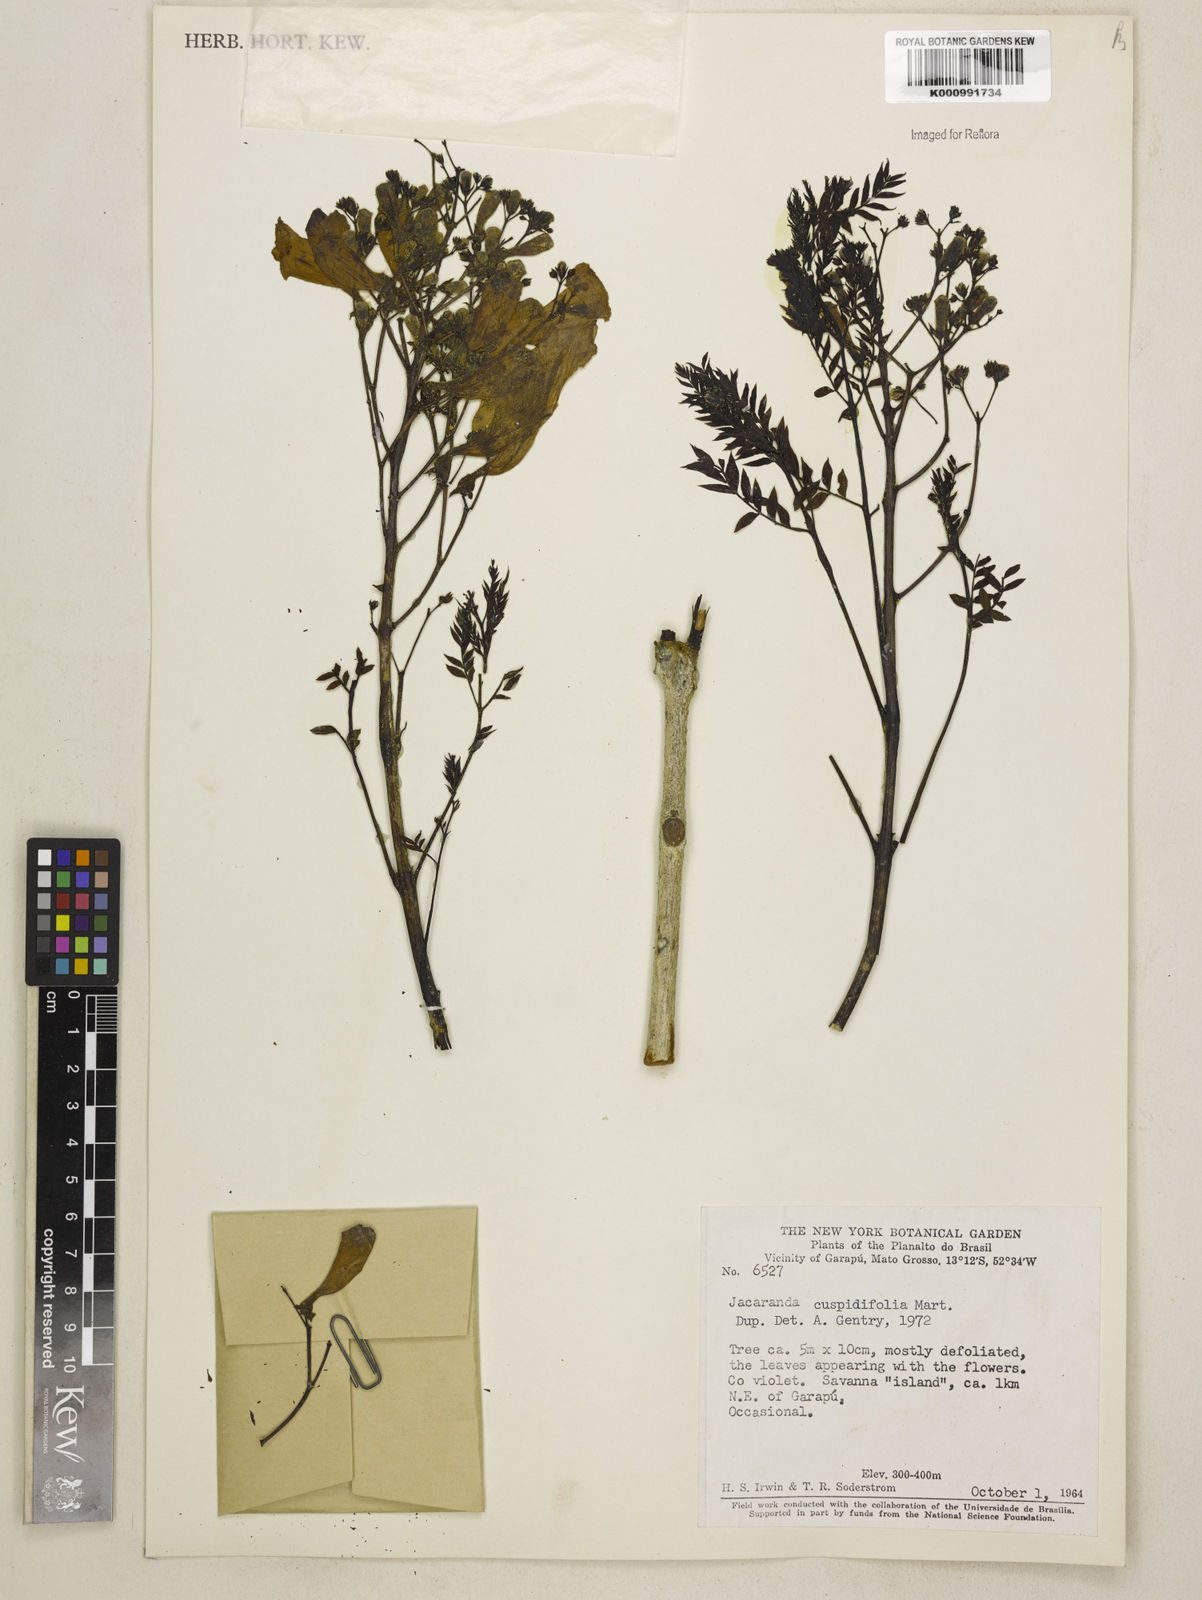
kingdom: Plantae
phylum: Tracheophyta
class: Magnoliopsida
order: Lamiales
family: Bignoniaceae
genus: Jacaranda
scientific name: Jacaranda cuspidifolia
